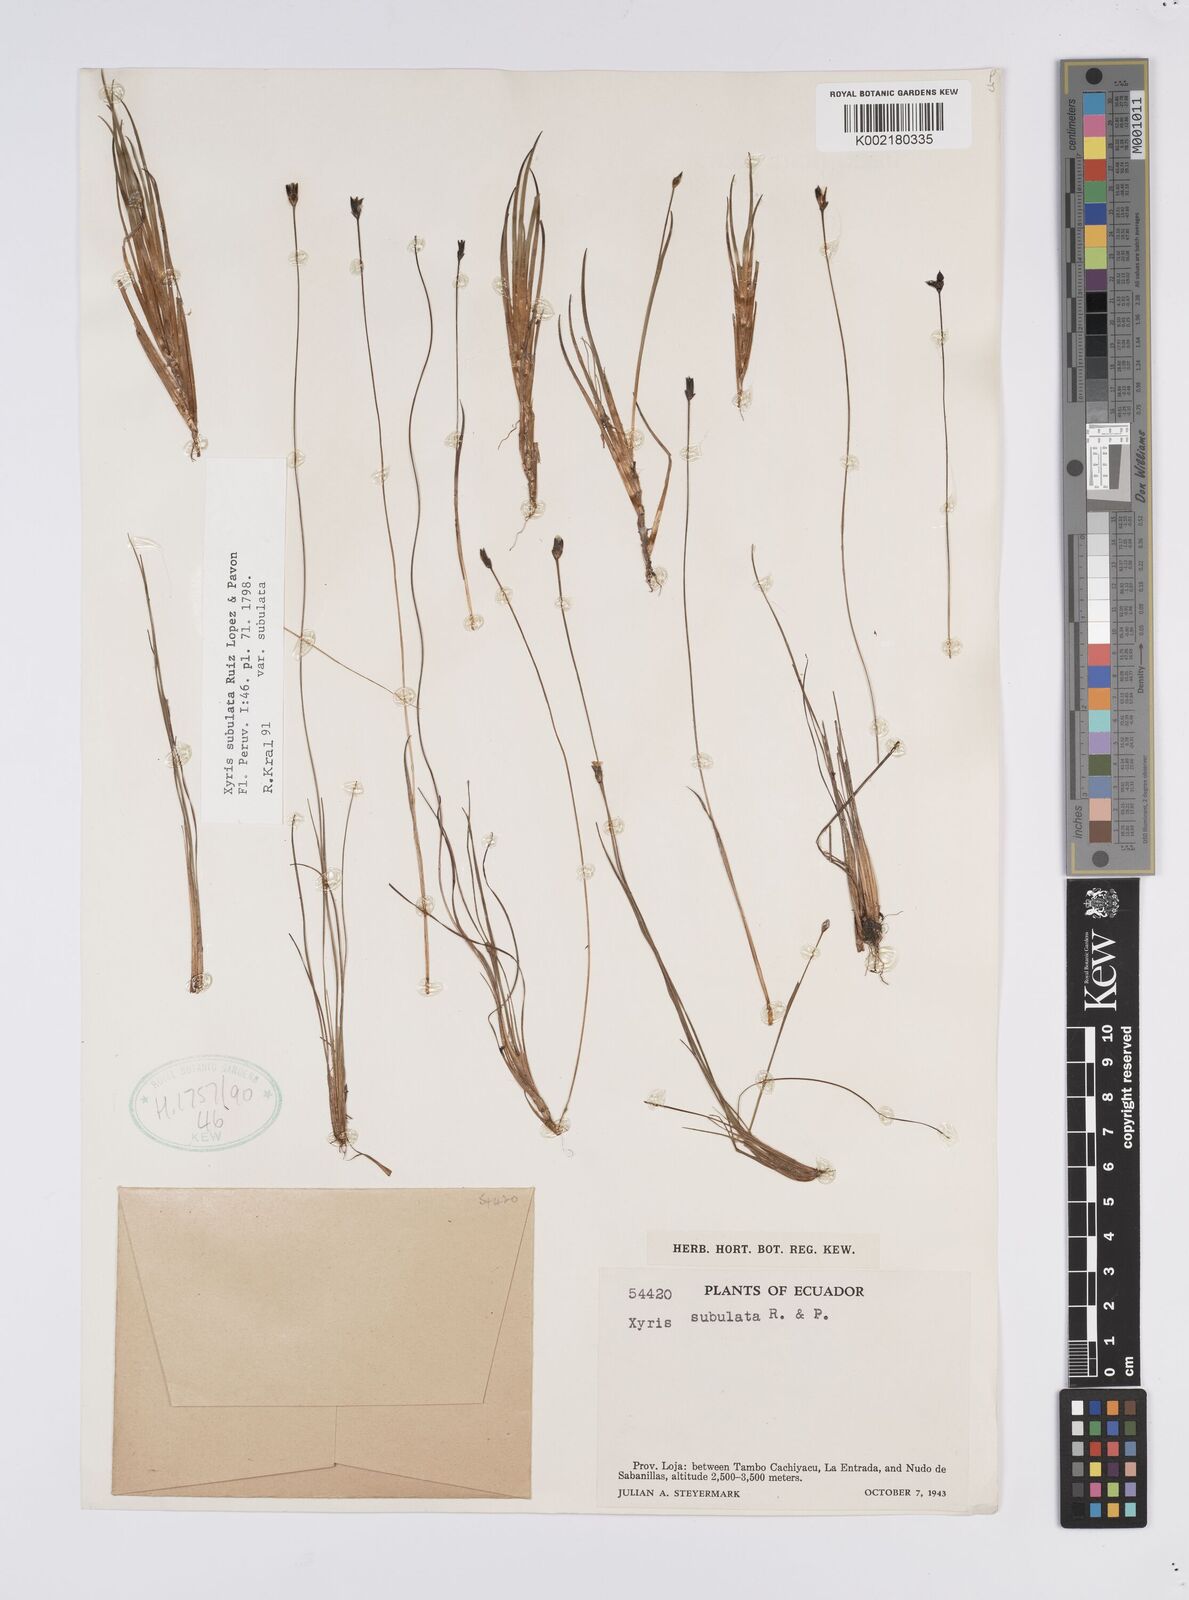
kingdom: Plantae
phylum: Tracheophyta
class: Liliopsida
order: Poales
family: Xyridaceae
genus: Xyris
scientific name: Xyris subulata
